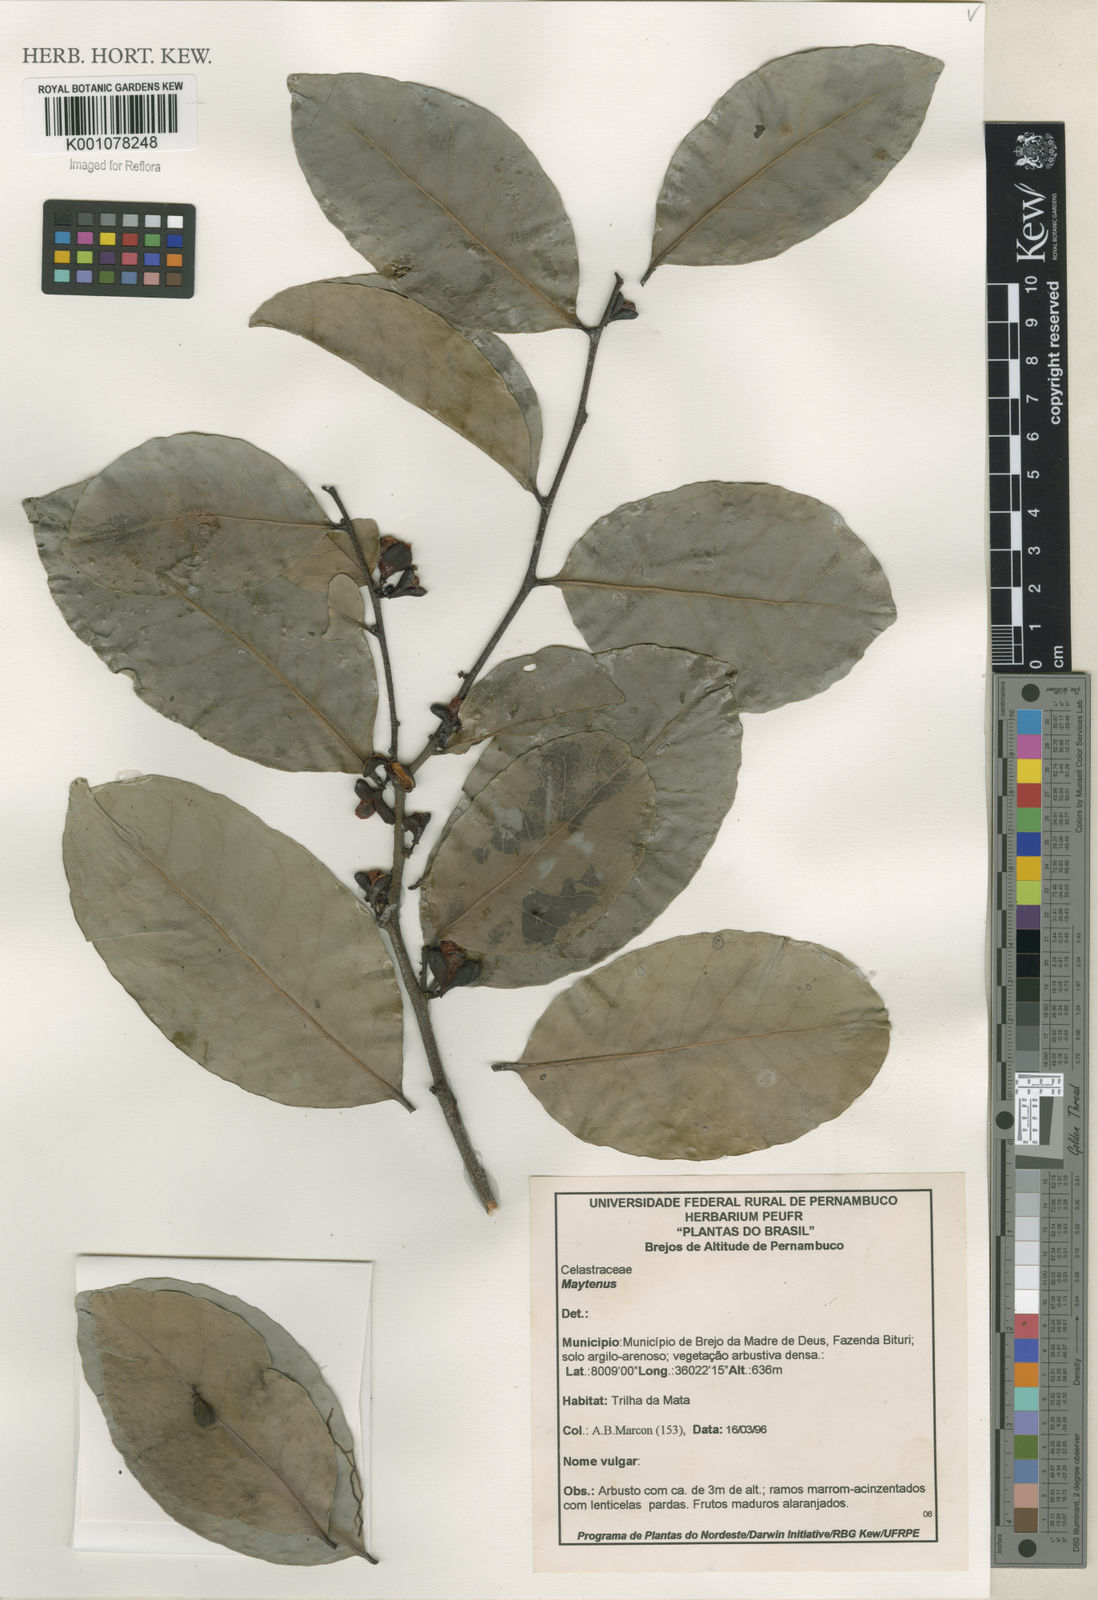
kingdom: Plantae
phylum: Tracheophyta
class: Magnoliopsida
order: Celastrales
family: Celastraceae
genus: Maytenus
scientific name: Maytenus
